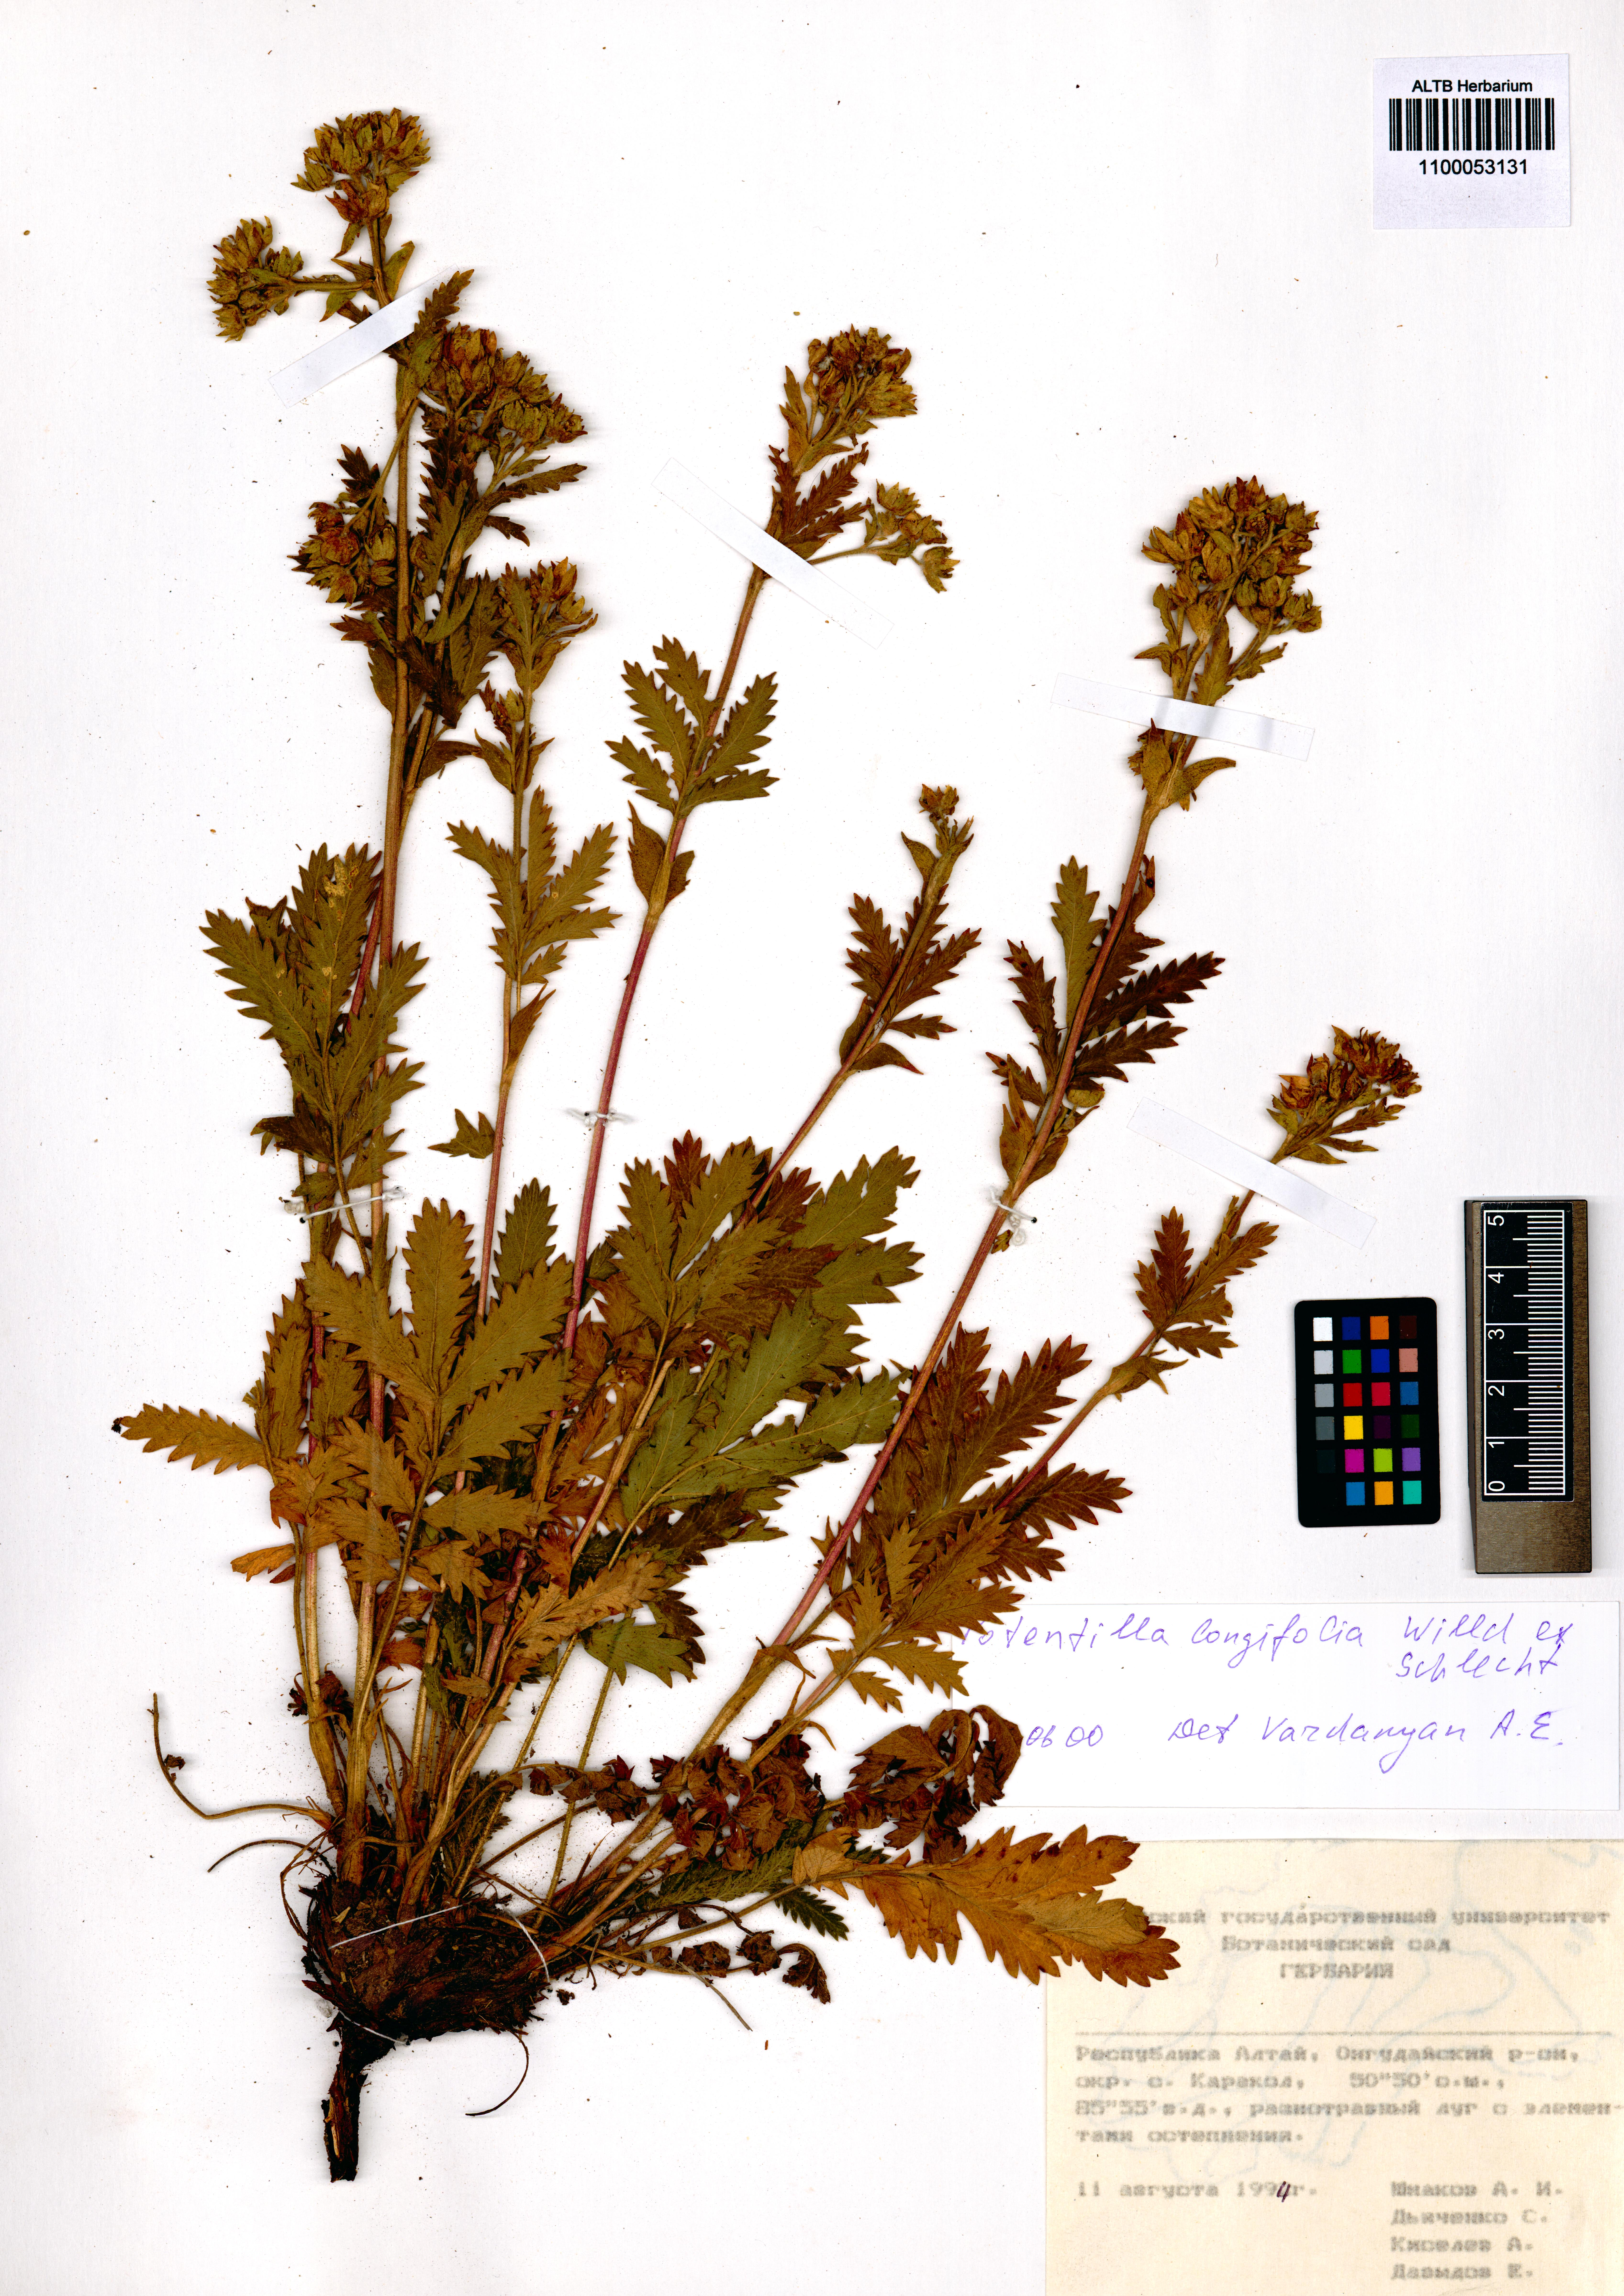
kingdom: Plantae
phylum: Tracheophyta
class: Magnoliopsida
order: Rosales
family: Rosaceae
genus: Potentilla
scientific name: Potentilla longifolia
